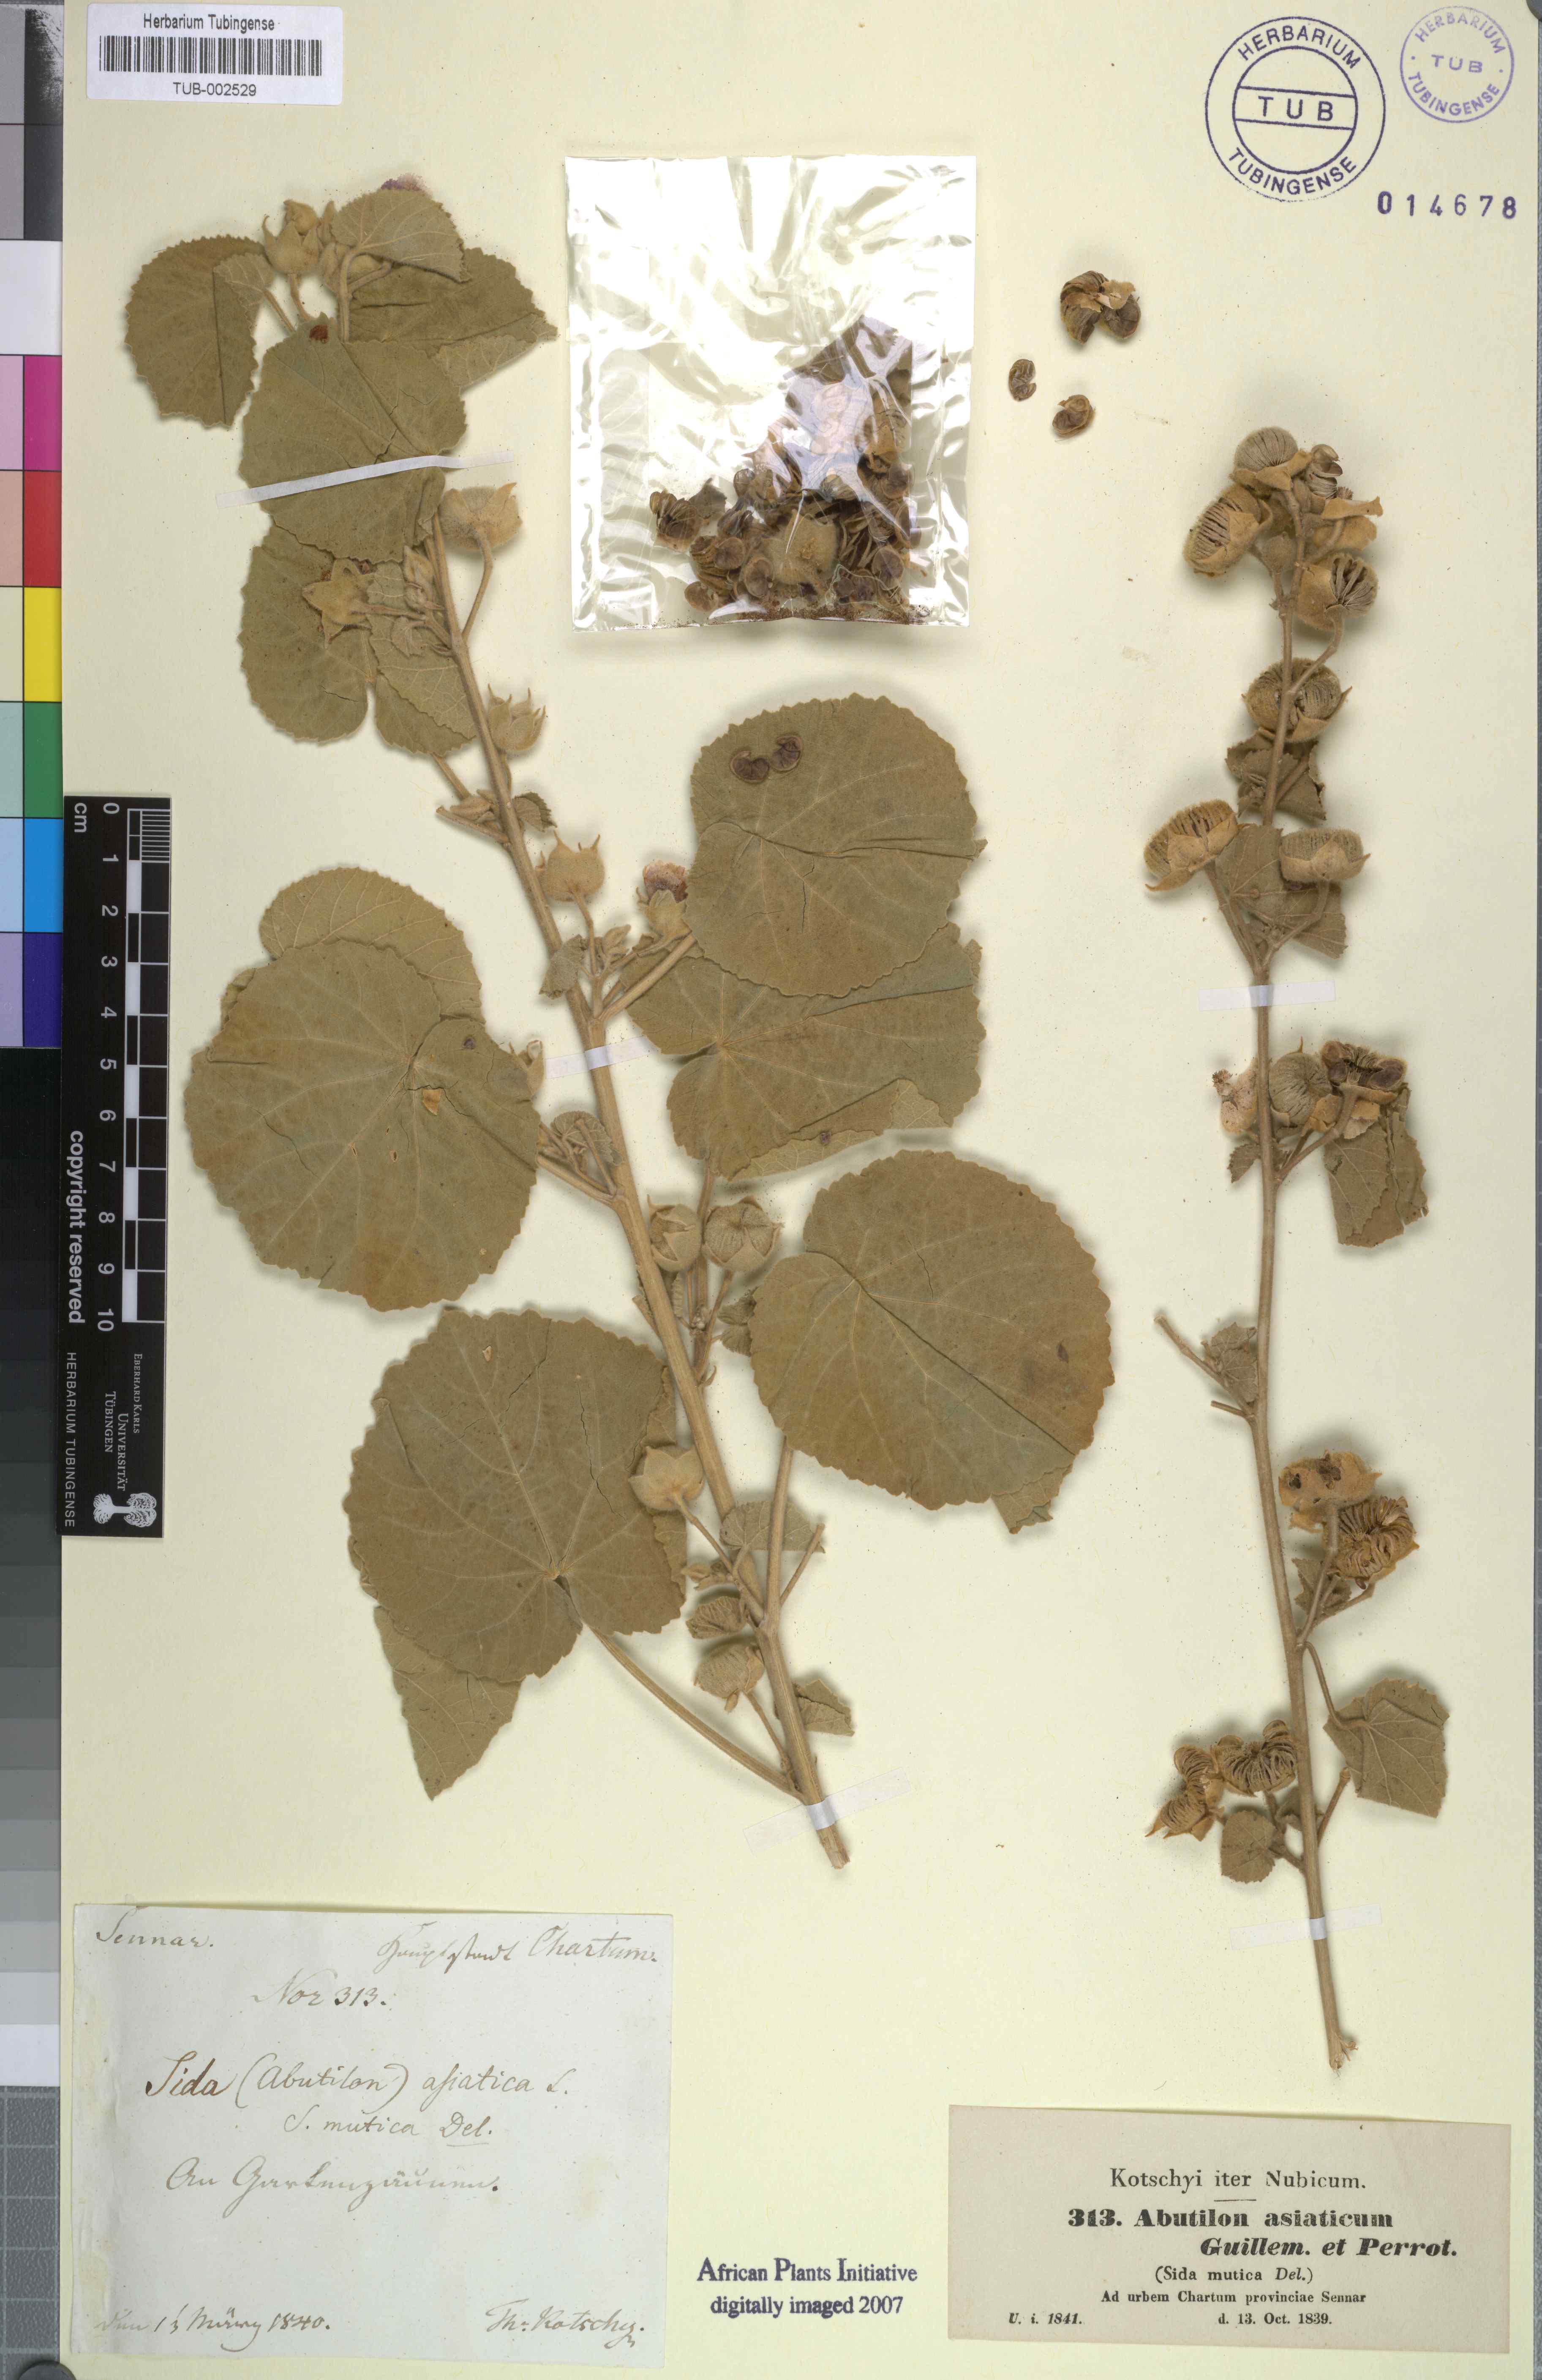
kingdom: Plantae
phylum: Tracheophyta
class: Magnoliopsida
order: Malvales
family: Malvaceae
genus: Abutilon
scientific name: Abutilon pannosum
